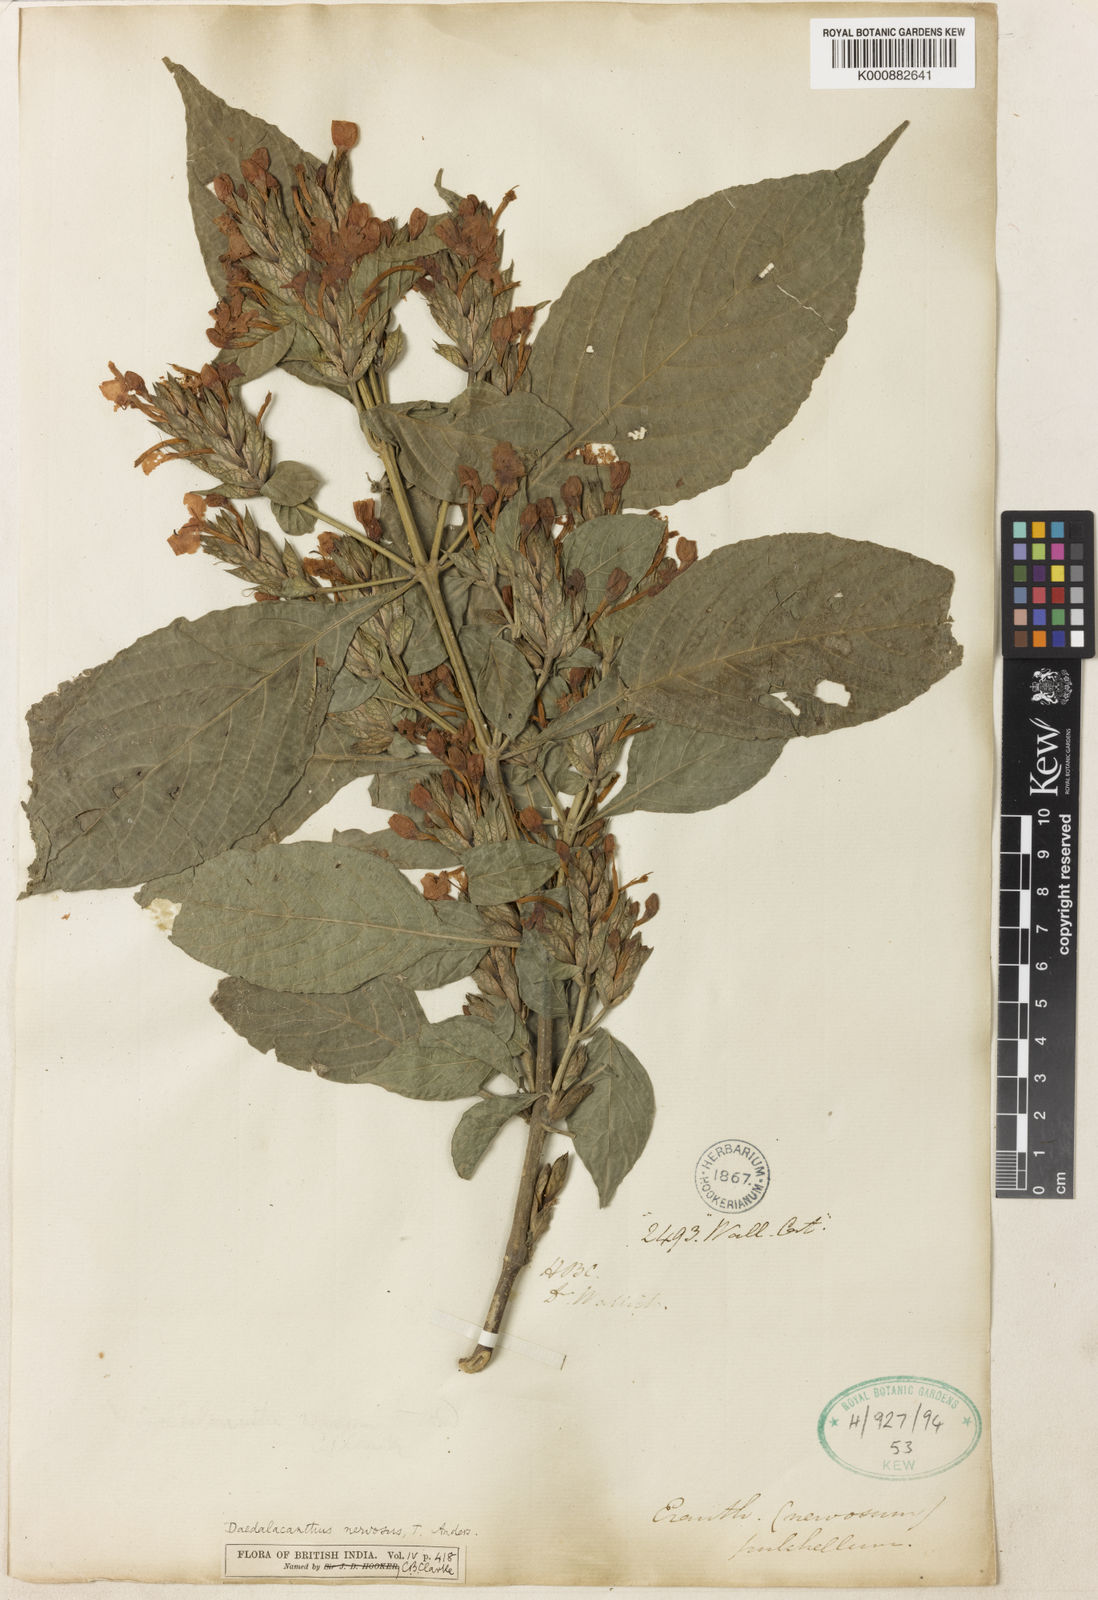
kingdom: Plantae
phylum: Tracheophyta
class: Magnoliopsida
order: Lamiales
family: Acanthaceae
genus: Eranthemum
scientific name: Eranthemum pulchellum
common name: Blue-sage
